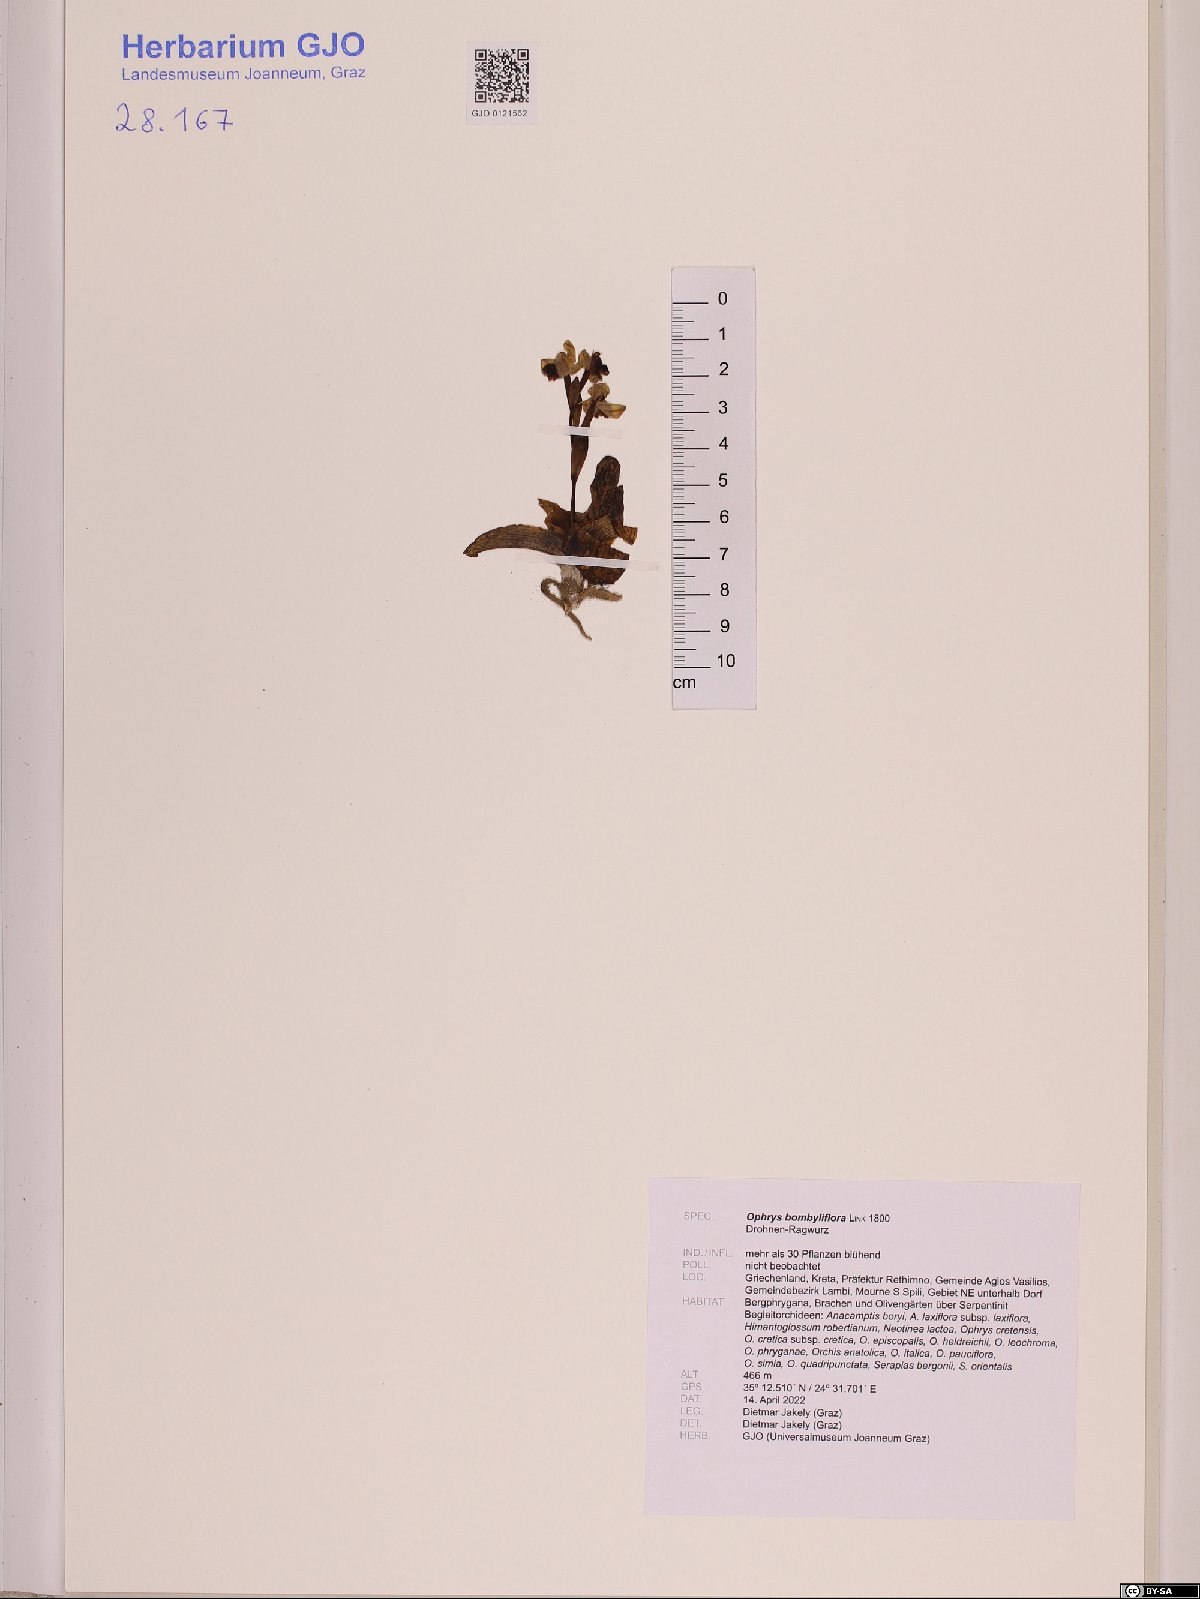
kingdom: Plantae
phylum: Tracheophyta
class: Liliopsida
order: Asparagales
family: Orchidaceae
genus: Ophrys
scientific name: Ophrys bombyliflora
